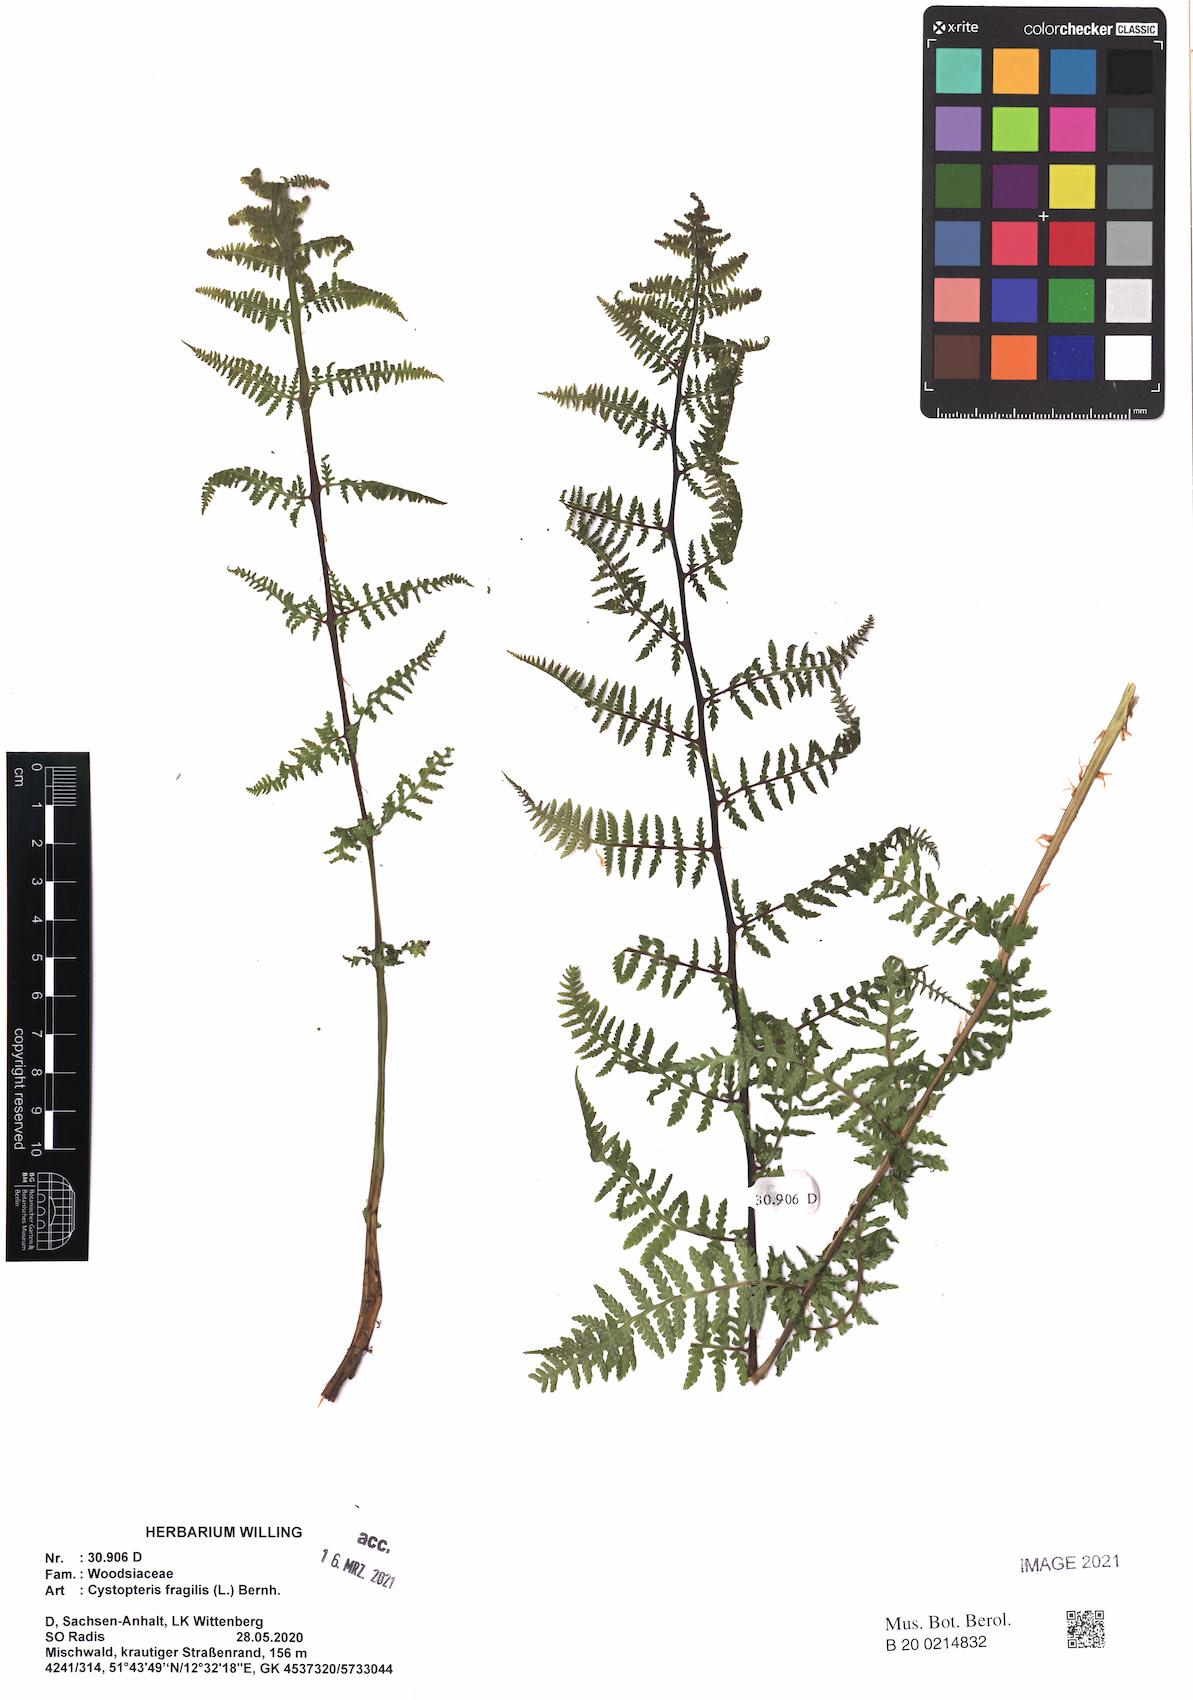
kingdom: Plantae
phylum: Tracheophyta
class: Polypodiopsida
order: Polypodiales
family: Cystopteridaceae
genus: Cystopteris
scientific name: Cystopteris fragilis
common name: Brittle bladder fern
